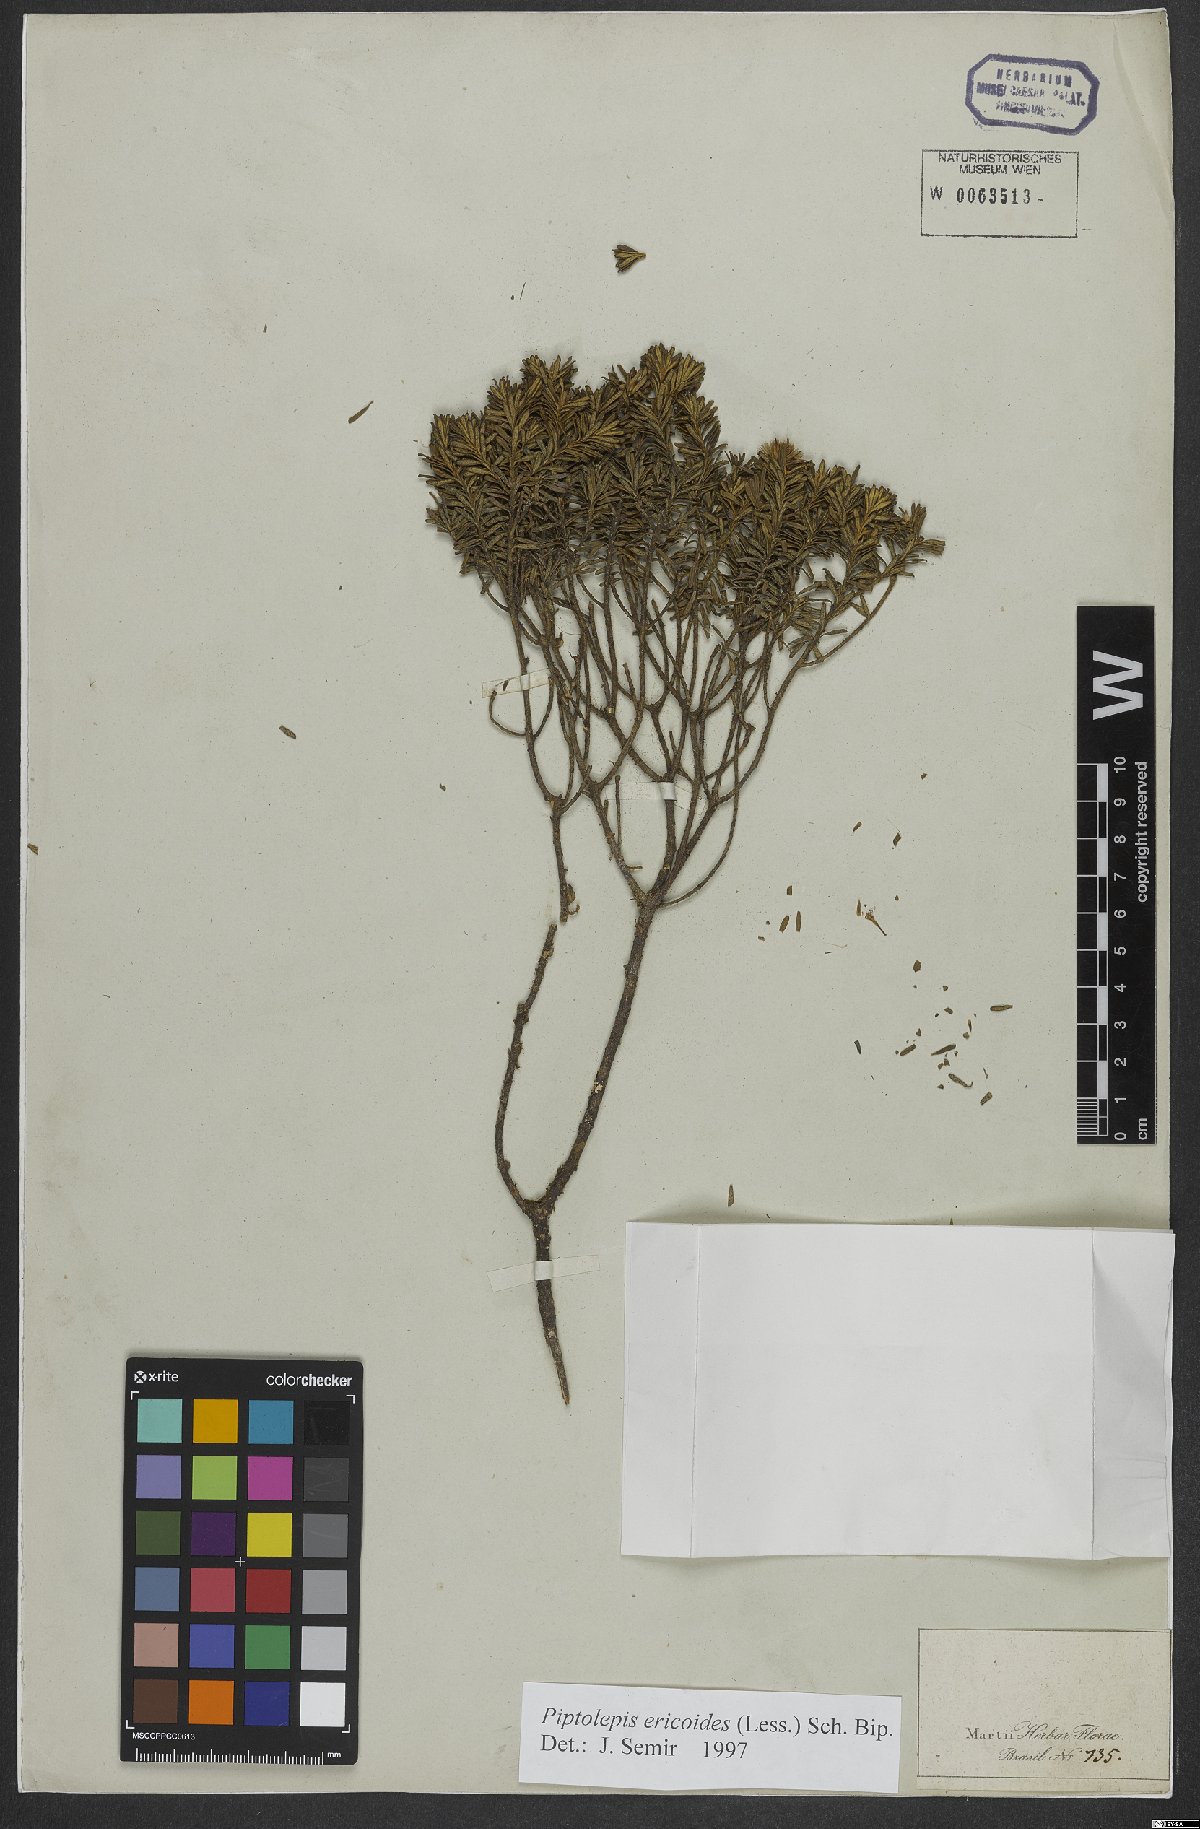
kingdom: Plantae
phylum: Tracheophyta
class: Magnoliopsida
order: Asterales
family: Asteraceae
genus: Piptolepis
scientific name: Piptolepis ericoides
